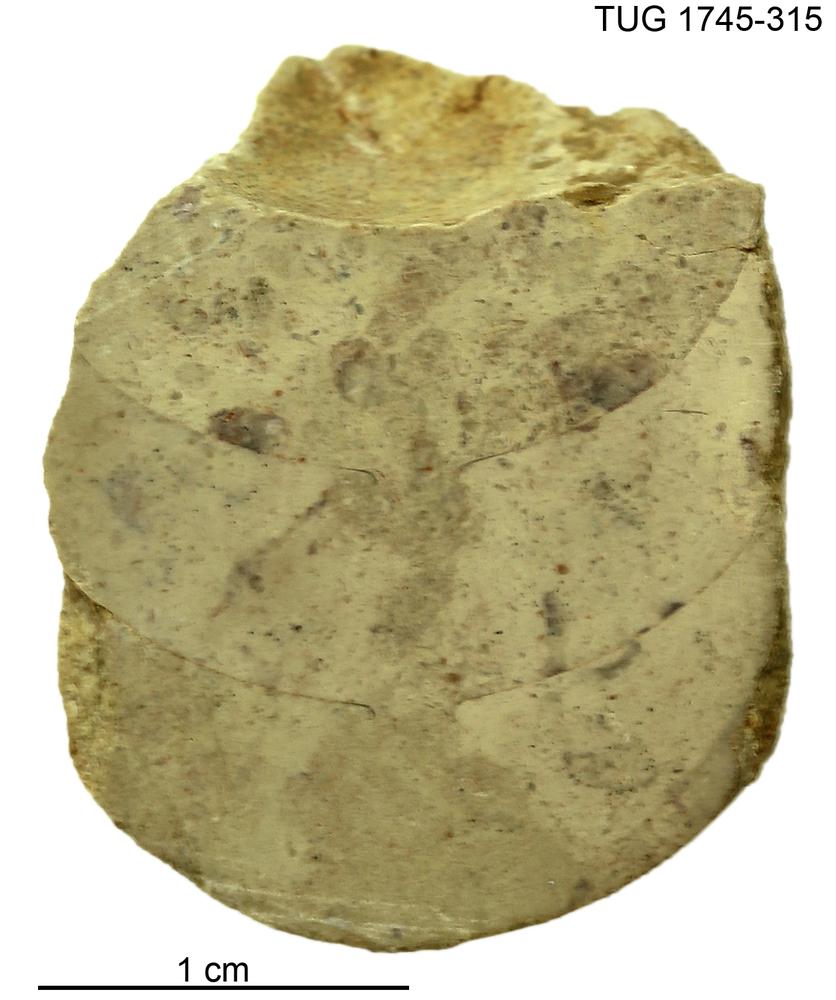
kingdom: Animalia
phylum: Mollusca
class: Cephalopoda
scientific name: Cephalopoda
